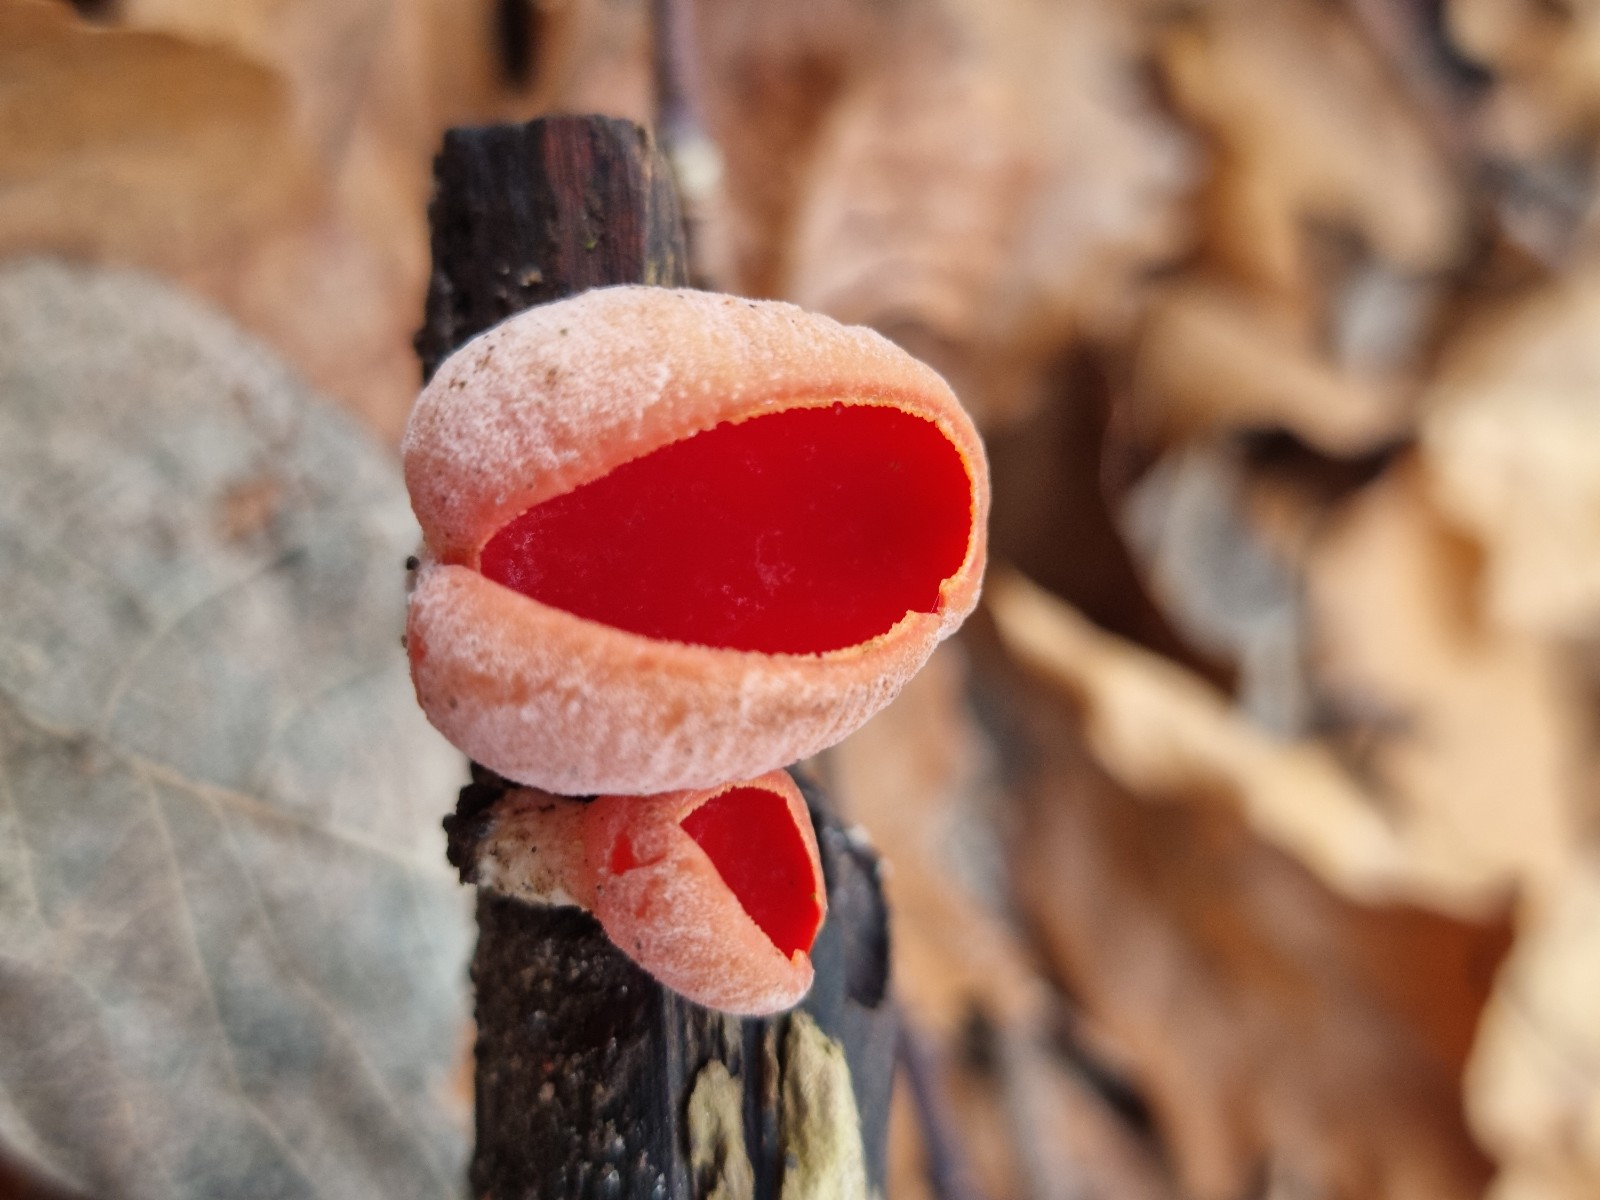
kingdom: Fungi
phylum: Ascomycota
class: Pezizomycetes
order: Pezizales
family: Sarcoscyphaceae
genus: Sarcoscypha
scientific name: Sarcoscypha austriaca
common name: krølhåret pragtbæger
